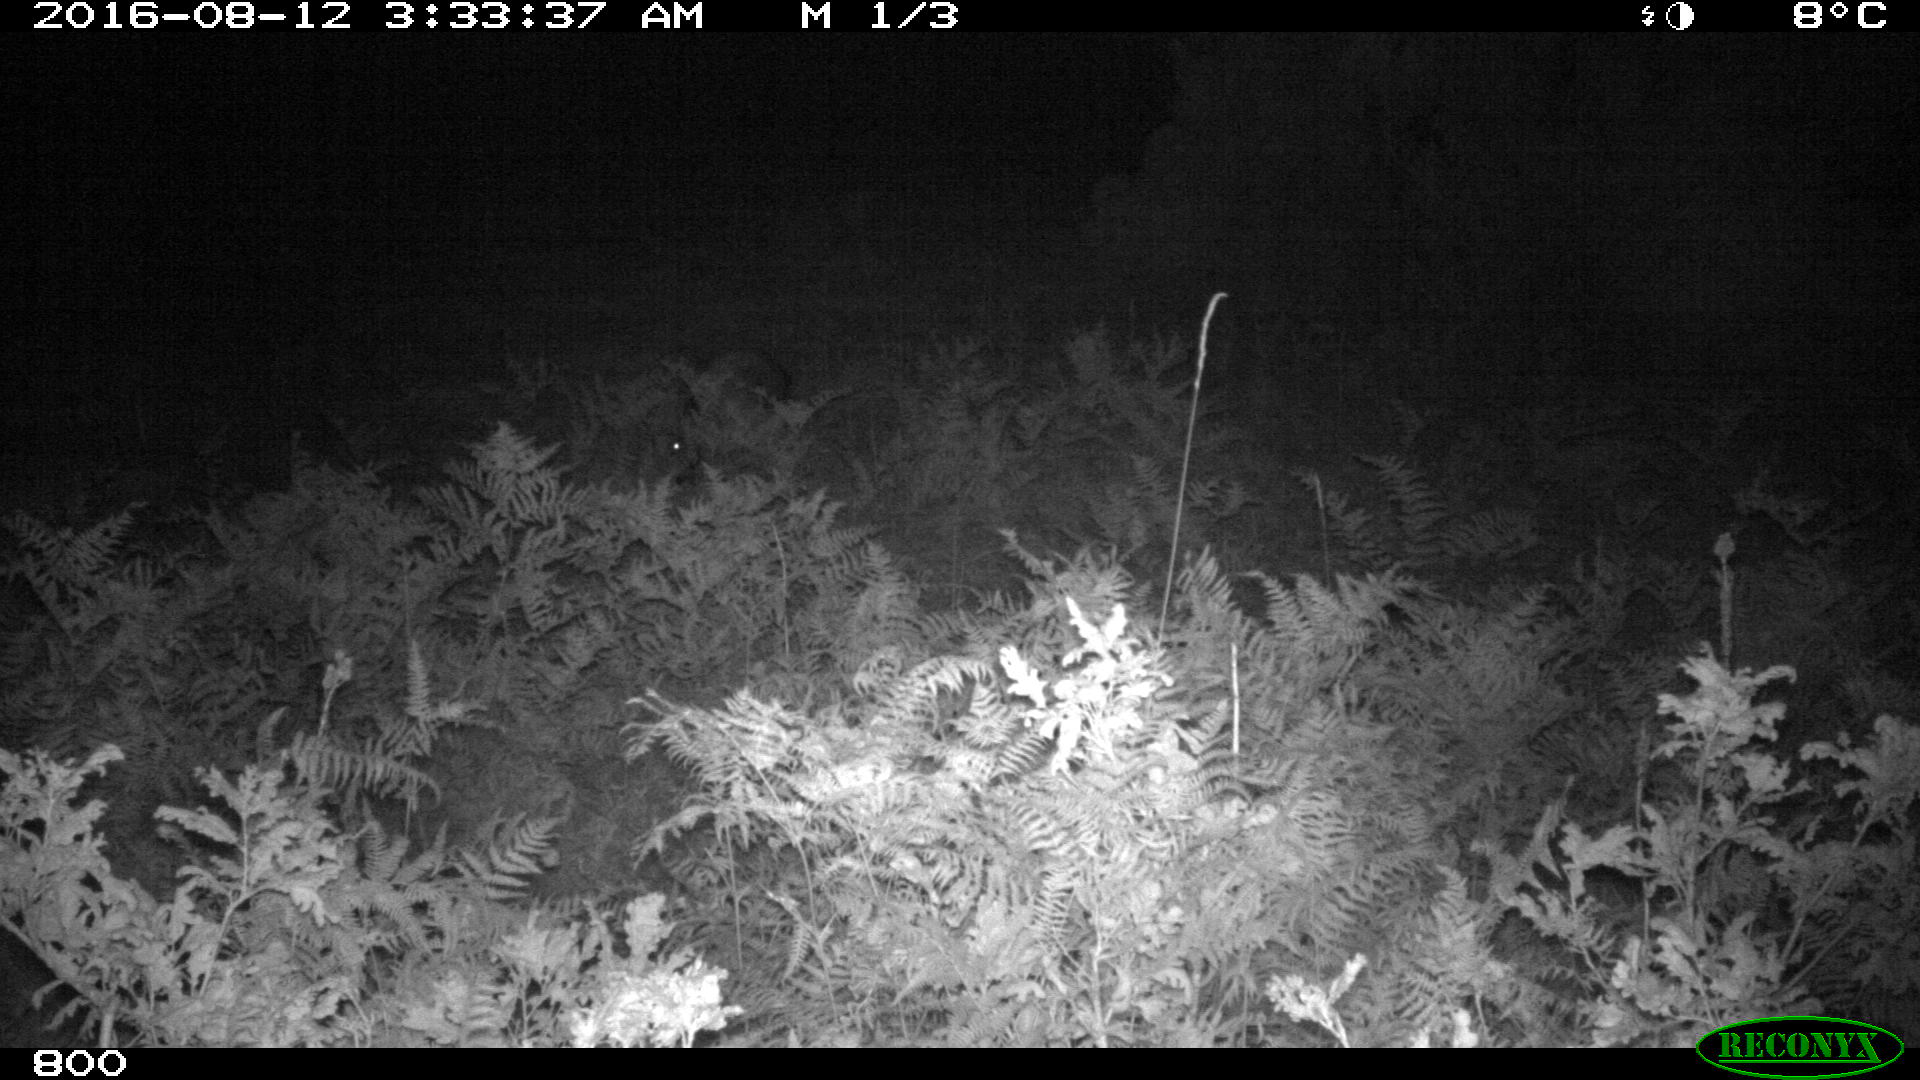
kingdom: Animalia
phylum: Chordata
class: Mammalia
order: Artiodactyla
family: Suidae
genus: Sus
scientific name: Sus scrofa
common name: Wild boar
